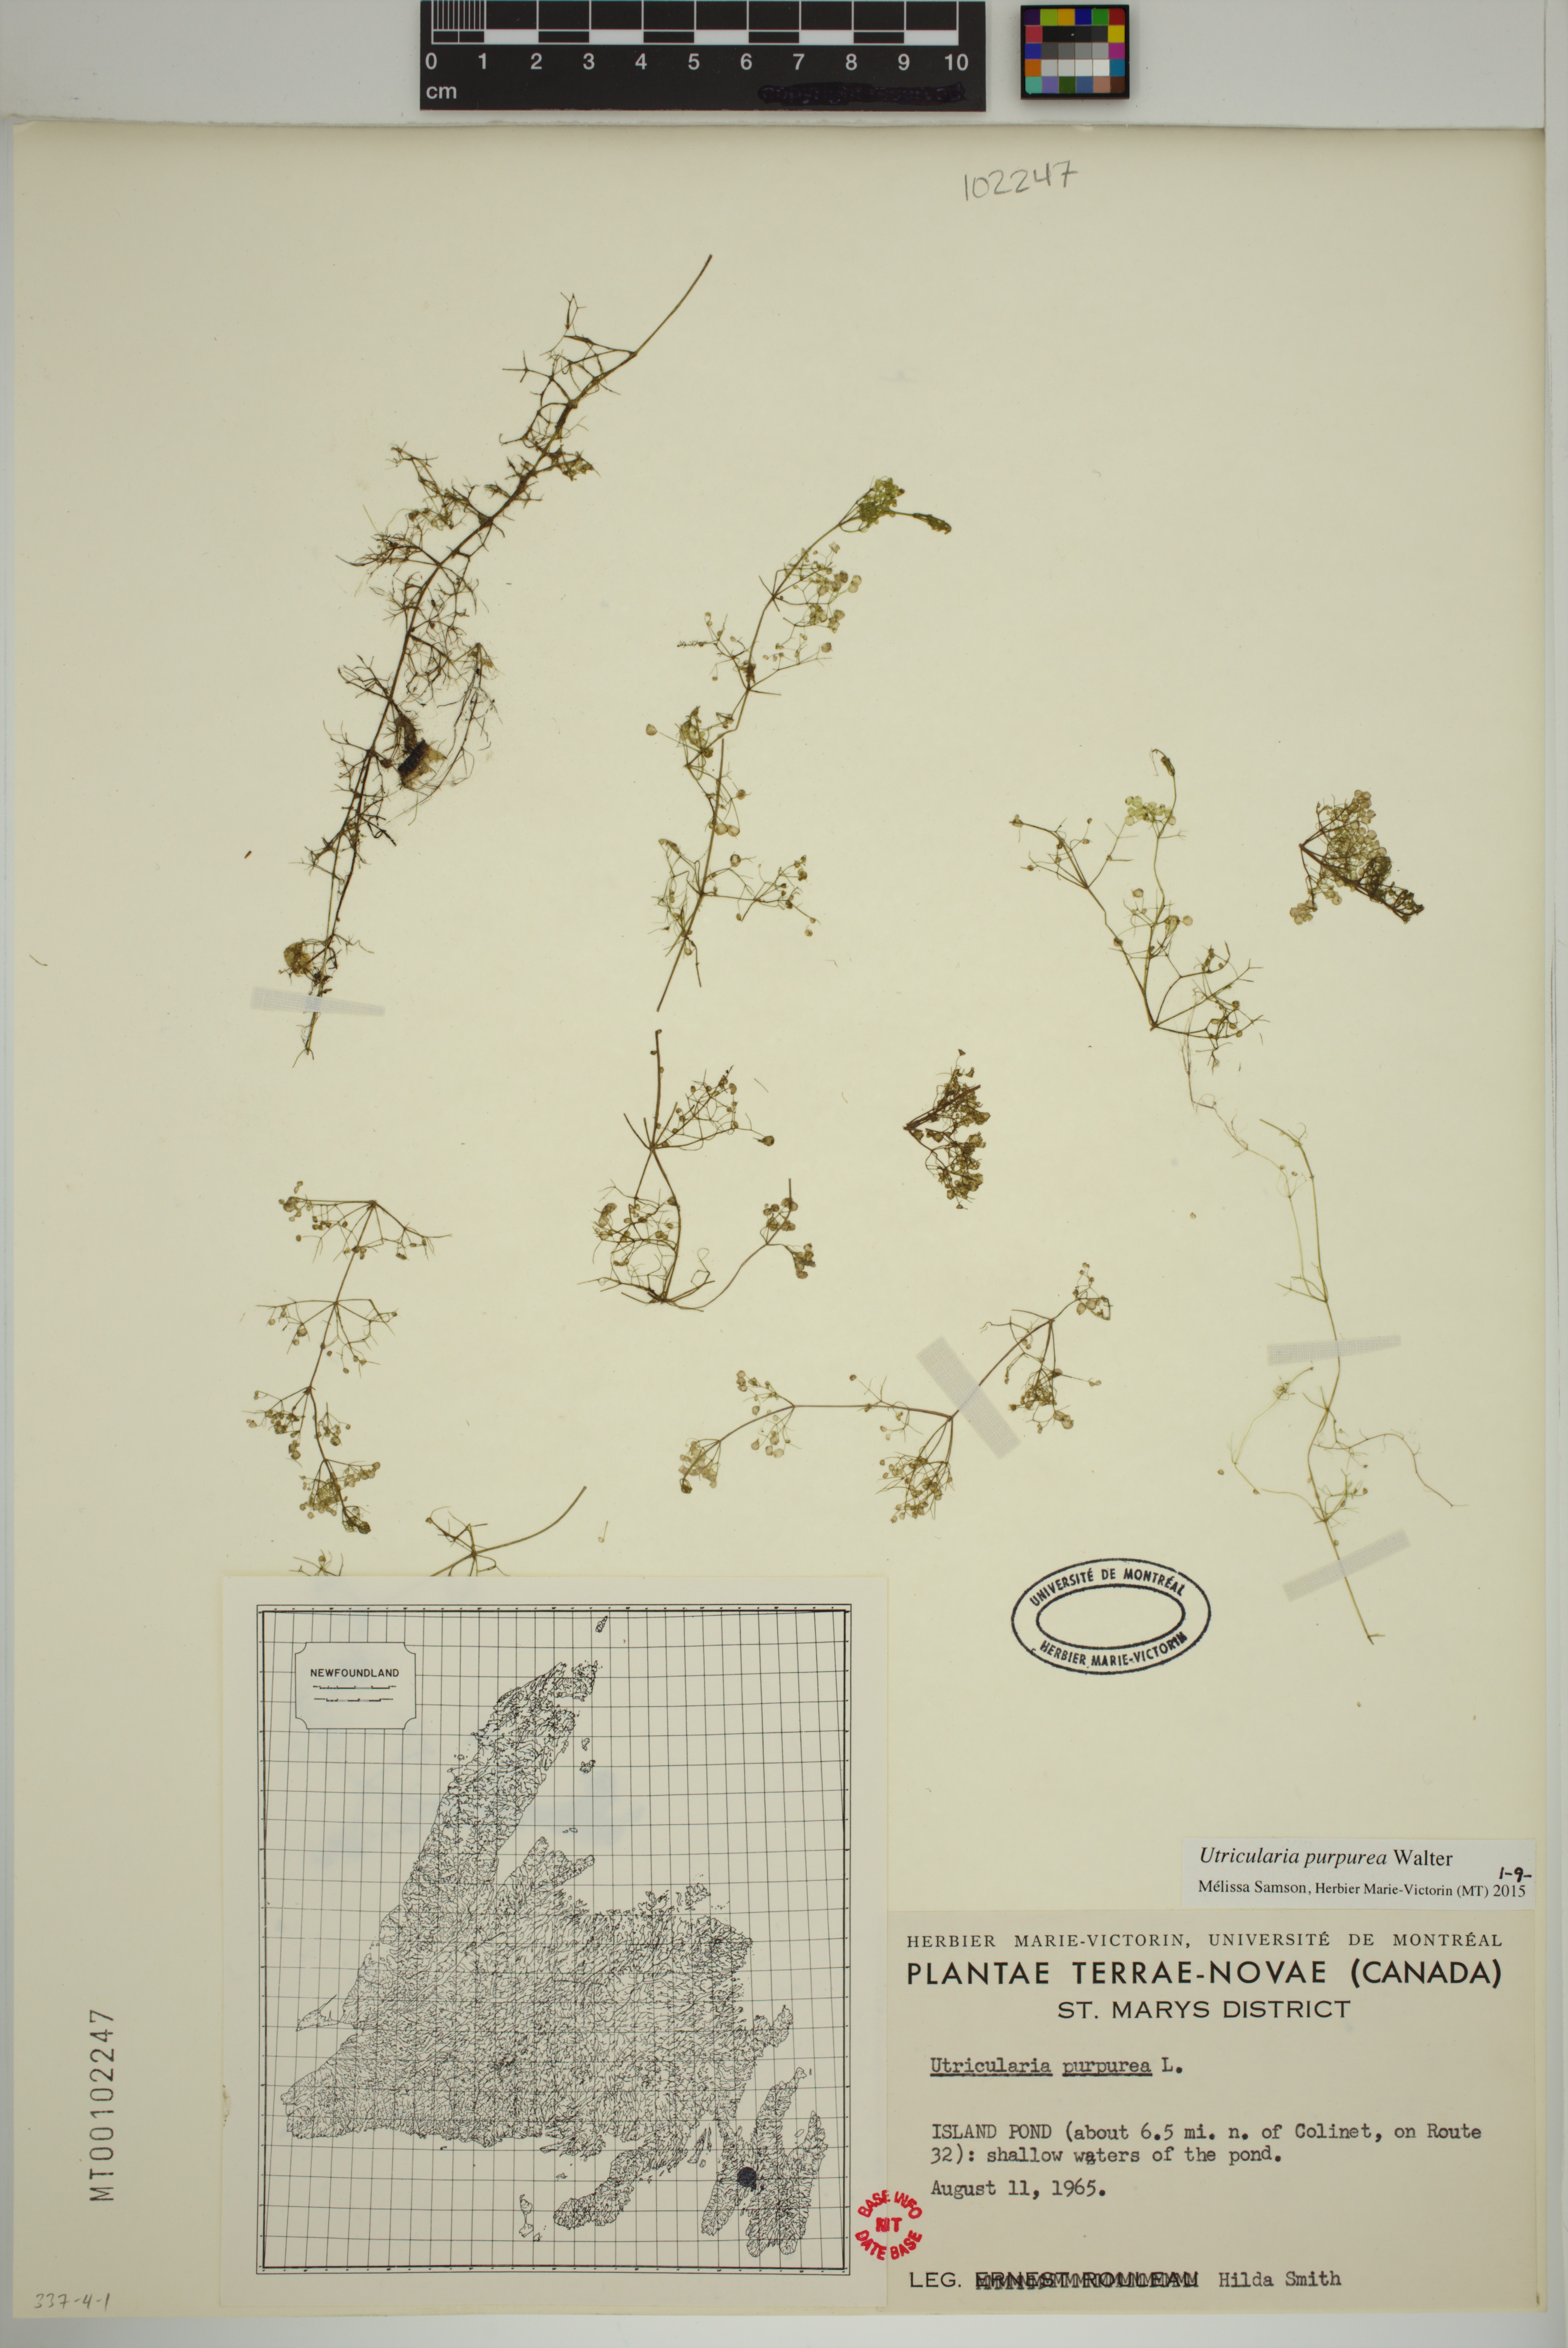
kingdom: Plantae
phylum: Tracheophyta
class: Magnoliopsida
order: Lamiales
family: Lentibulariaceae
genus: Utricularia
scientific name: Utricularia purpurea
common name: Eastern purple bladderwort
